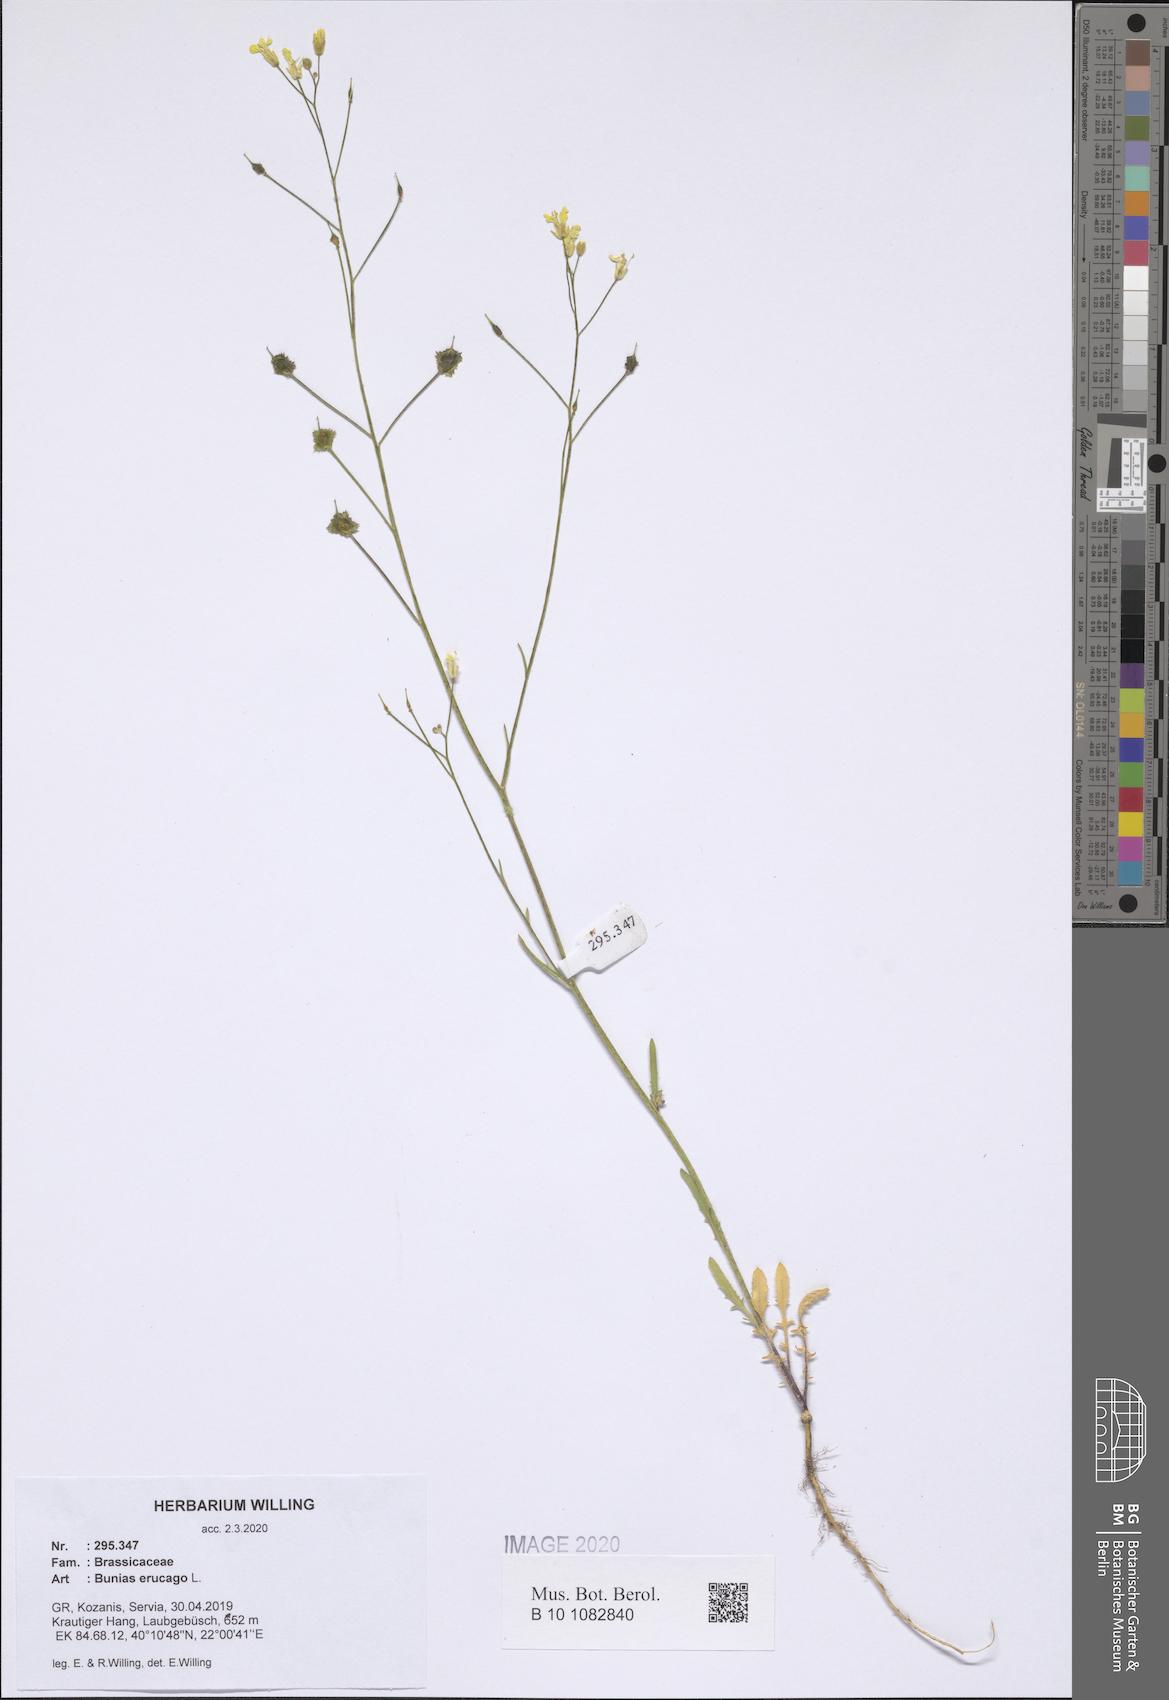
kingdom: Plantae
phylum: Tracheophyta
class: Magnoliopsida
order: Brassicales
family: Brassicaceae
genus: Bunias
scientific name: Bunias erucago
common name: Southern warty-cabbage
